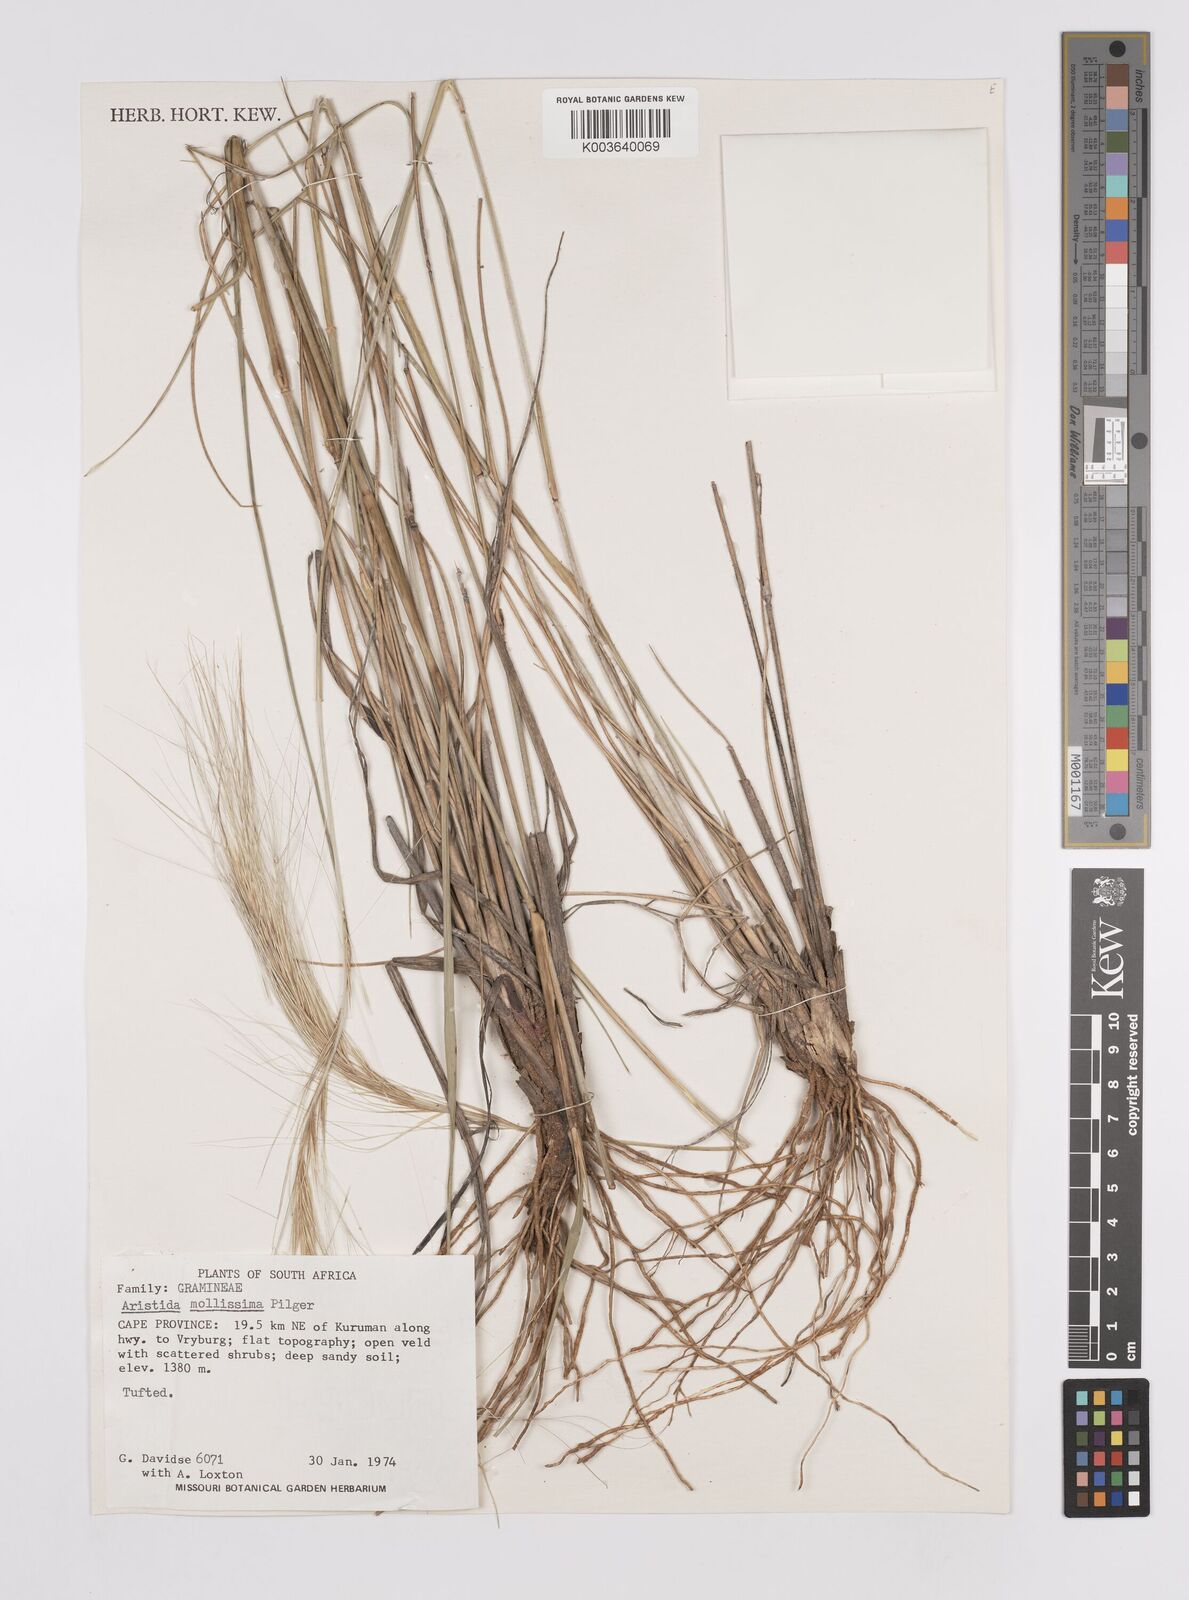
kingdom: Plantae
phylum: Tracheophyta
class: Liliopsida
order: Poales
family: Poaceae
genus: Aristida
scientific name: Aristida mollissima
